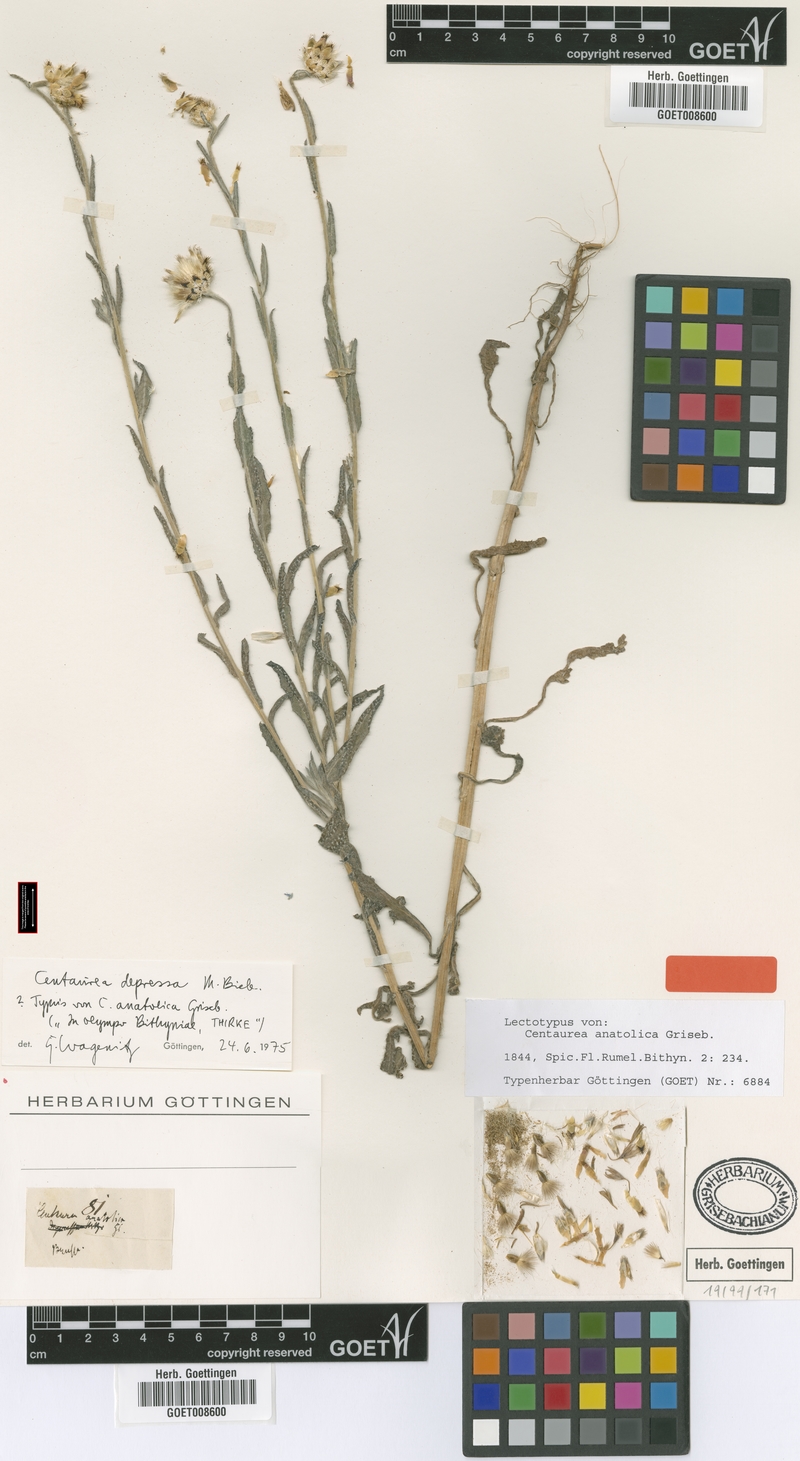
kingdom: Plantae
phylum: Tracheophyta
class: Magnoliopsida
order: Asterales
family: Asteraceae
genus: Centaurea
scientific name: Centaurea depressa
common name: Iranian knapweed
